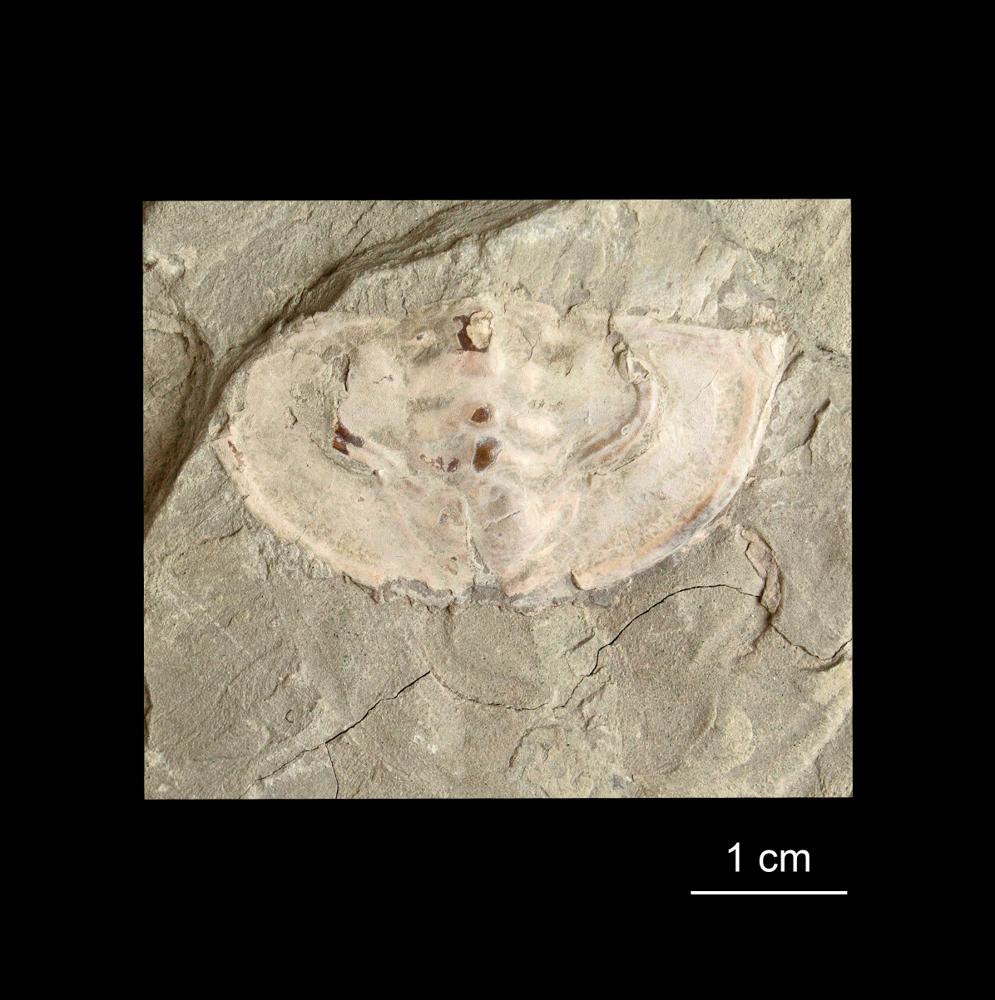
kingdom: Animalia
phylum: Arthropoda
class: Trilobita
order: Redlichiida
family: Holmiidae
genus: Schmidtiellus
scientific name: Schmidtiellus Olenellus mickwitzi
